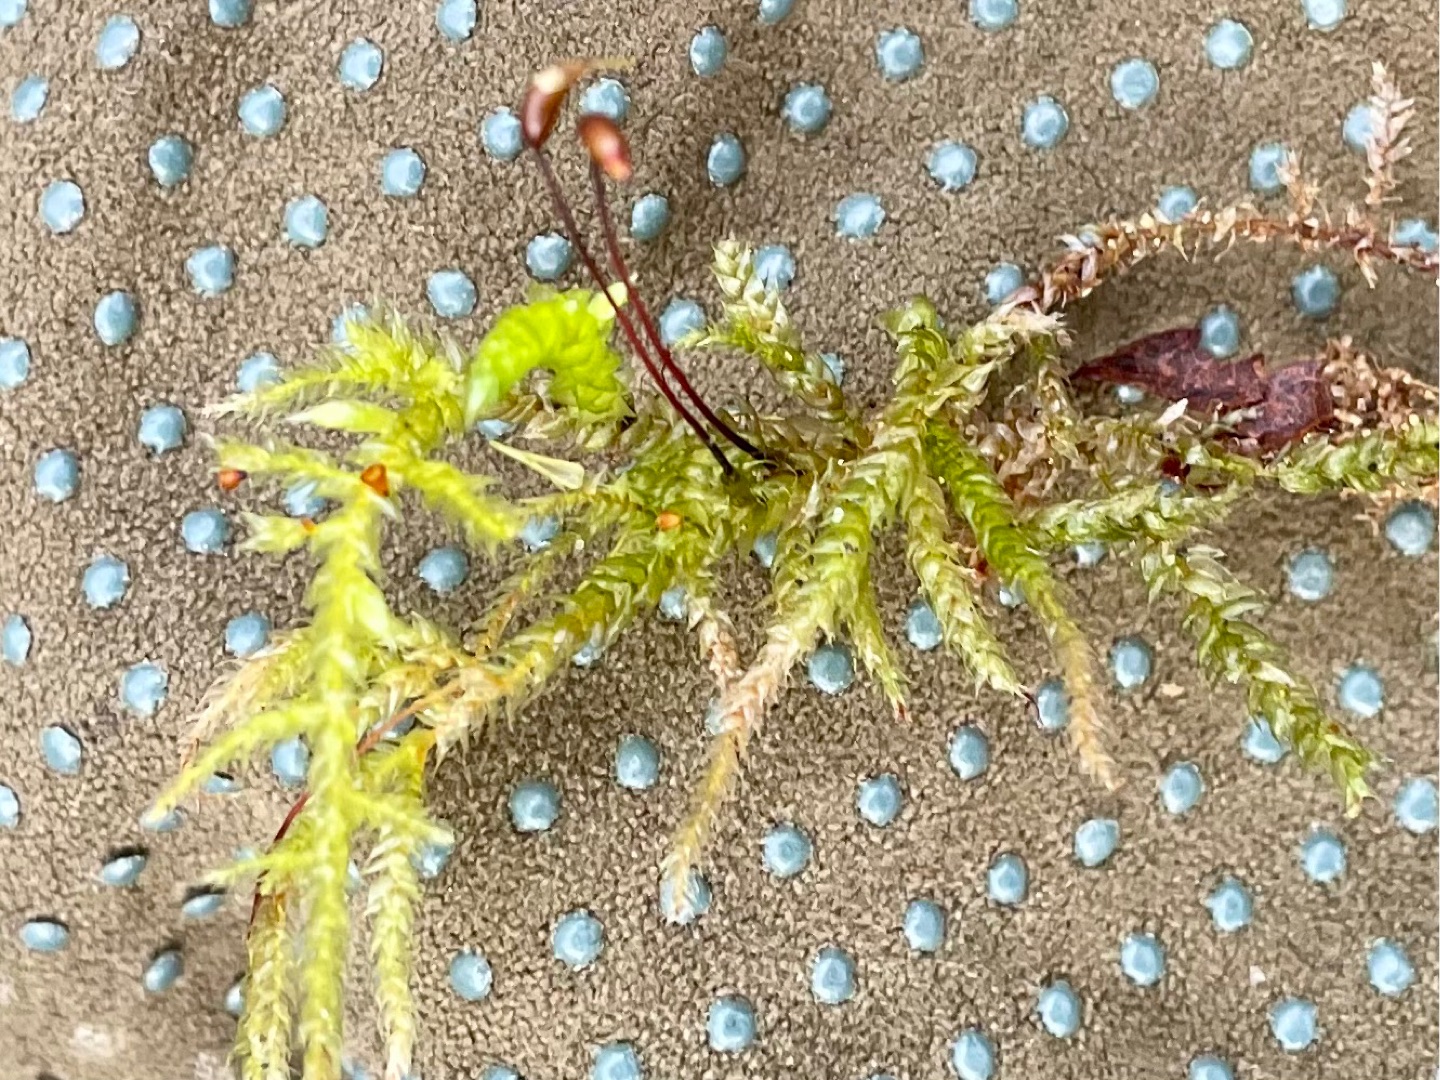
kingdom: Plantae
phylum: Bryophyta
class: Bryopsida
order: Hypnales
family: Brachytheciaceae
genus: Brachythecium
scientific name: Brachythecium rutabulum
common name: Almindelig kortkapsel
